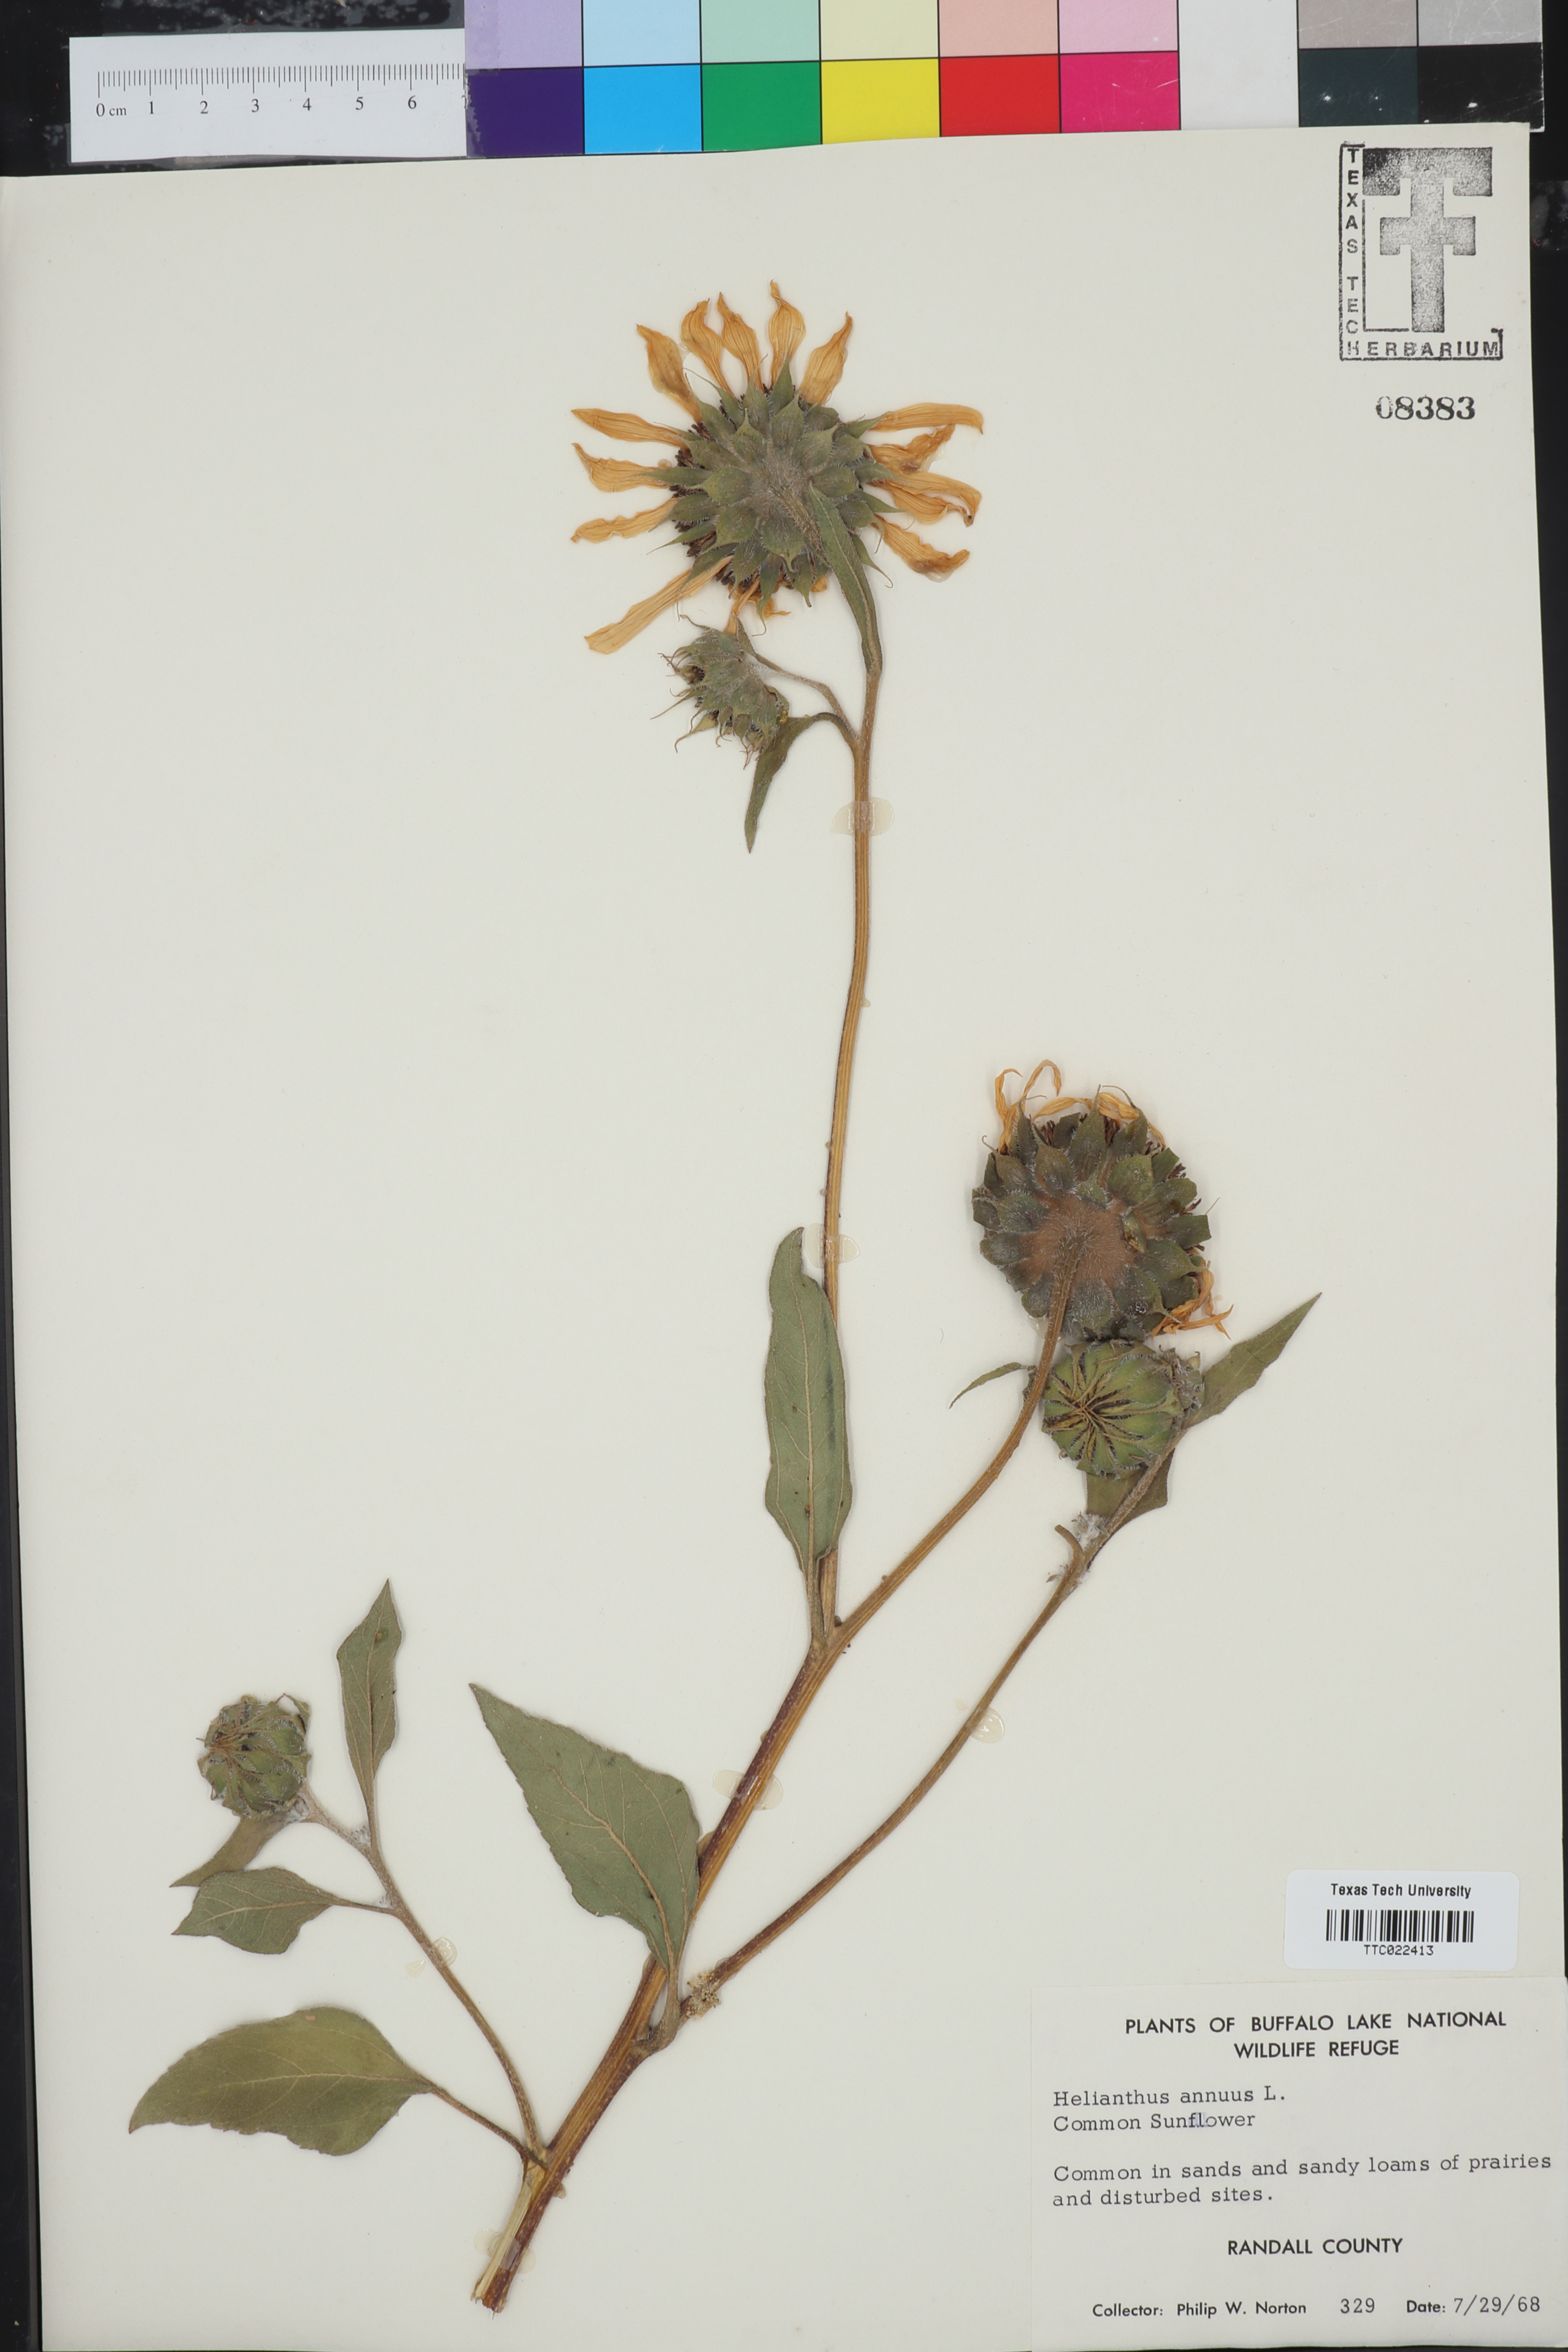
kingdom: Plantae
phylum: Tracheophyta
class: Magnoliopsida
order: Asterales
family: Asteraceae
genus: Helianthus
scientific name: Helianthus annuus
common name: Sunflower
